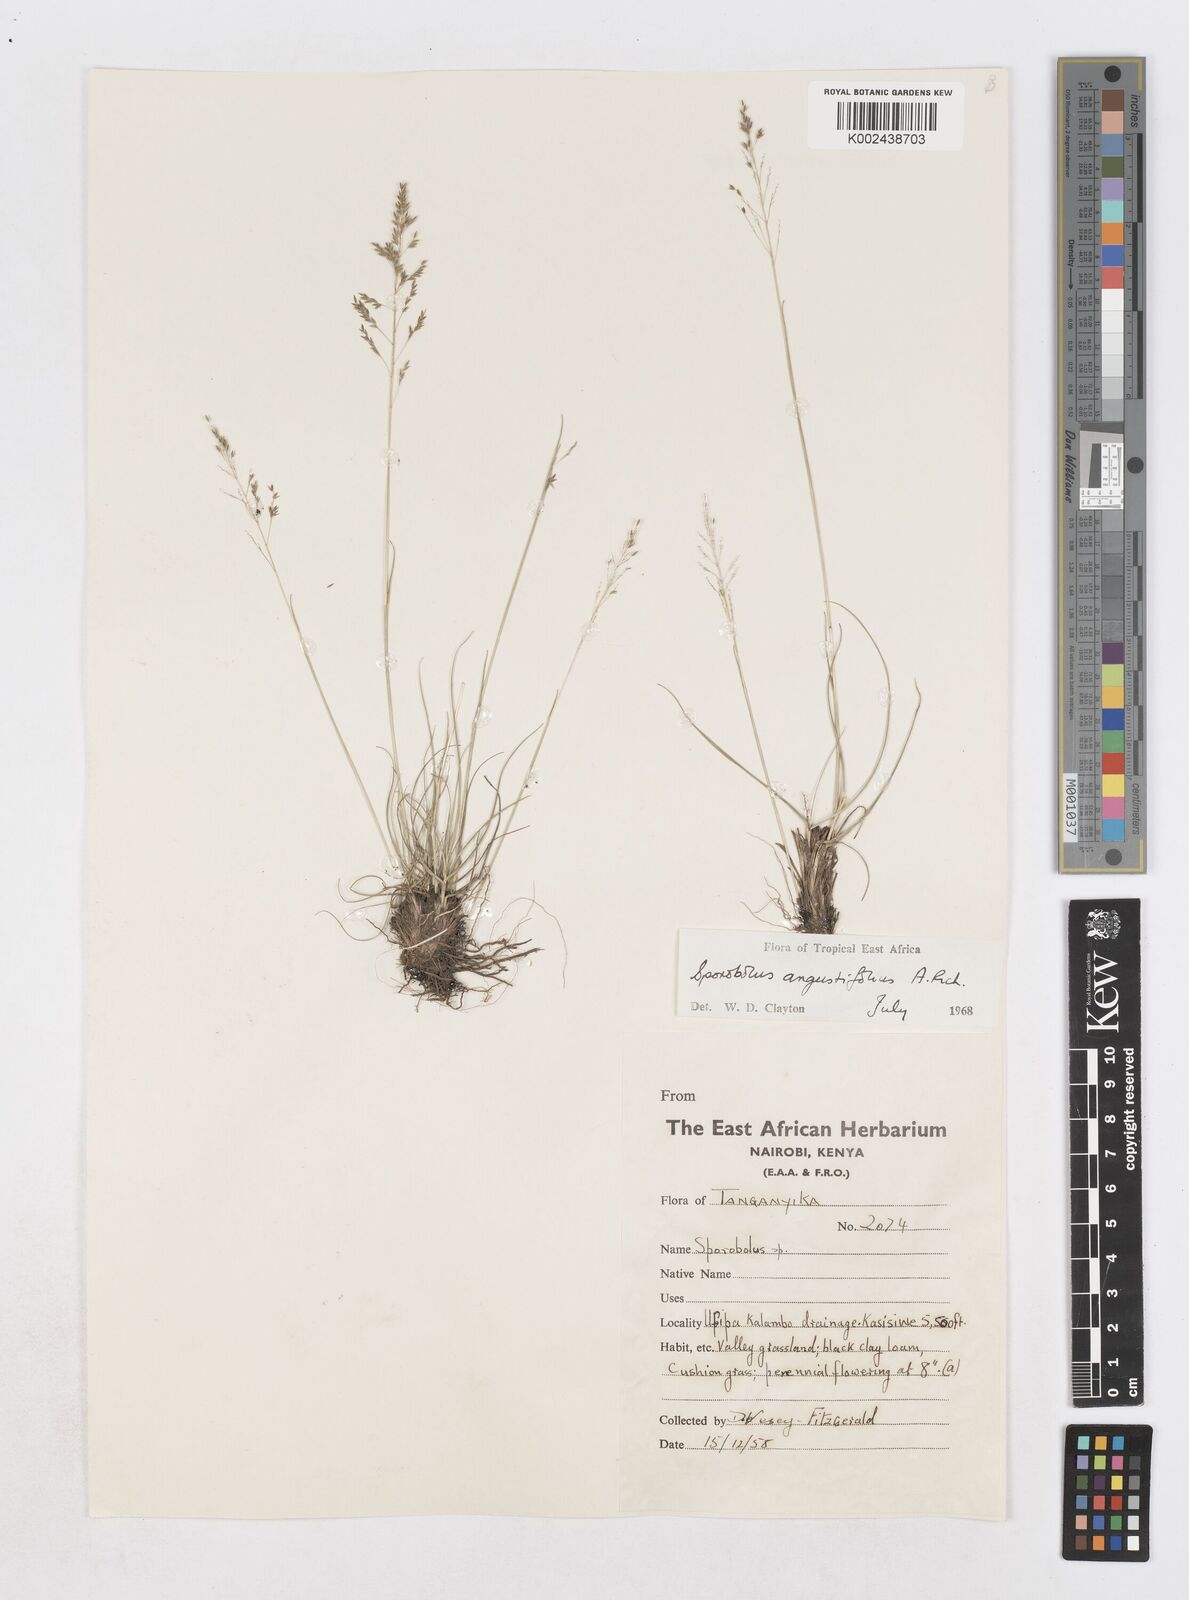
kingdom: Plantae
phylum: Tracheophyta
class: Liliopsida
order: Poales
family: Poaceae
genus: Sporobolus
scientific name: Sporobolus angustifolius
